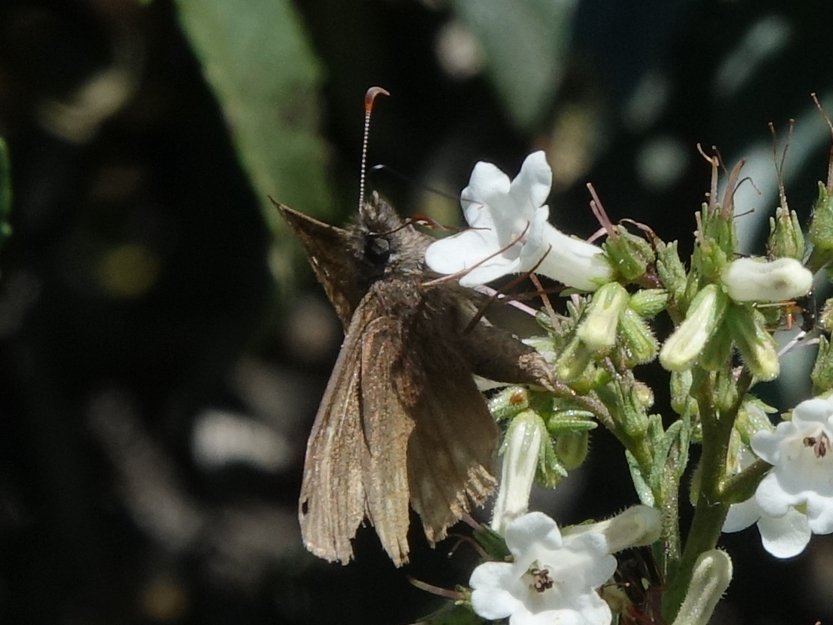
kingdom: Animalia
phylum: Arthropoda
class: Insecta
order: Lepidoptera
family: Hesperiidae
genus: Erynnis
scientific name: Erynnis propertius
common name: Propertius Duskywing
